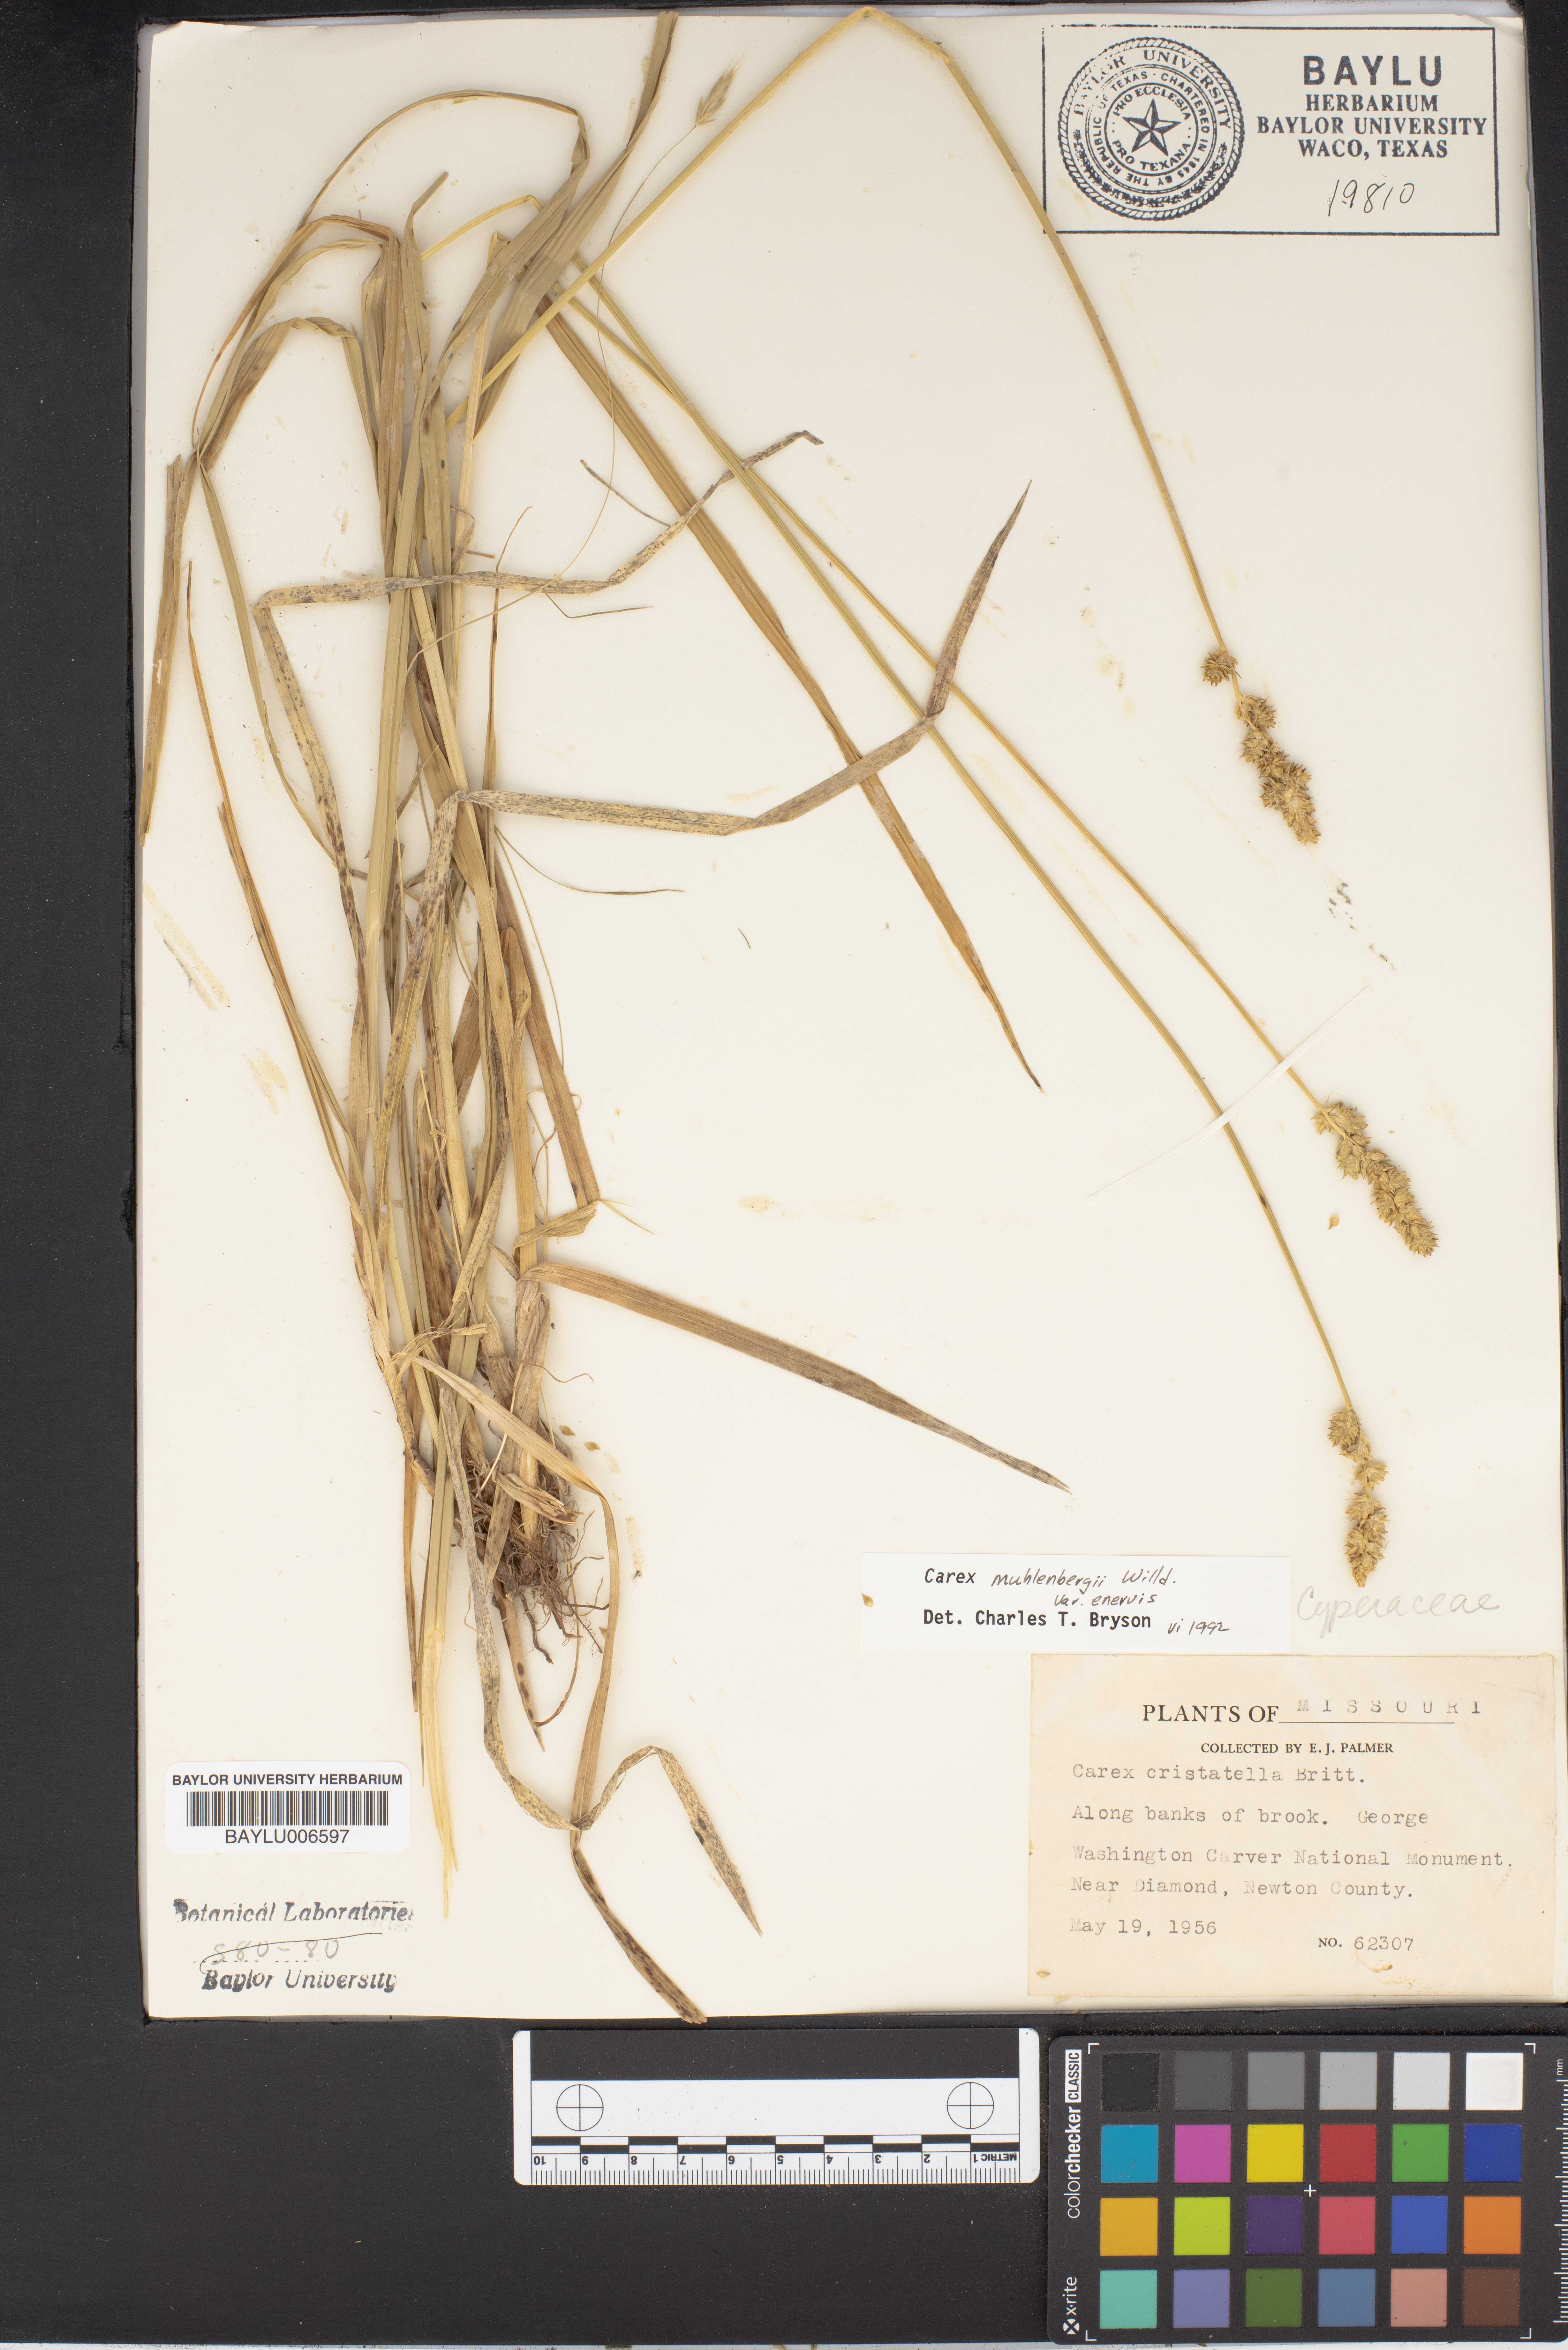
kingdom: Plantae
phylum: Tracheophyta
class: Liliopsida
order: Poales
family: Cyperaceae
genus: Carex
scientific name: Carex vulpinoidea
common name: American fox-sedge
